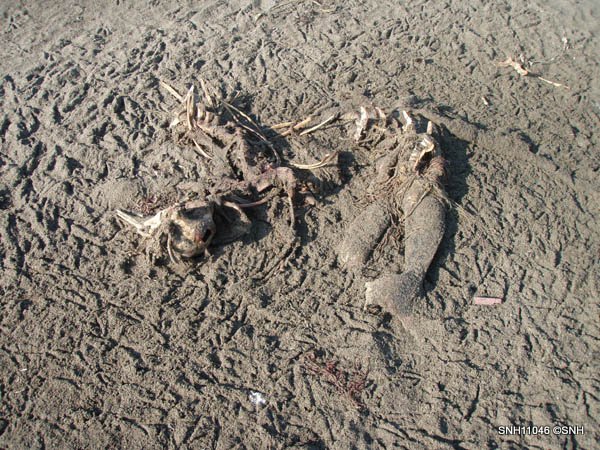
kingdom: Animalia
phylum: Chordata
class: Mammalia
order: Cetacea
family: Phocoenidae
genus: Phocoena
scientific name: Phocoena phocoena
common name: Harbour porpoise
